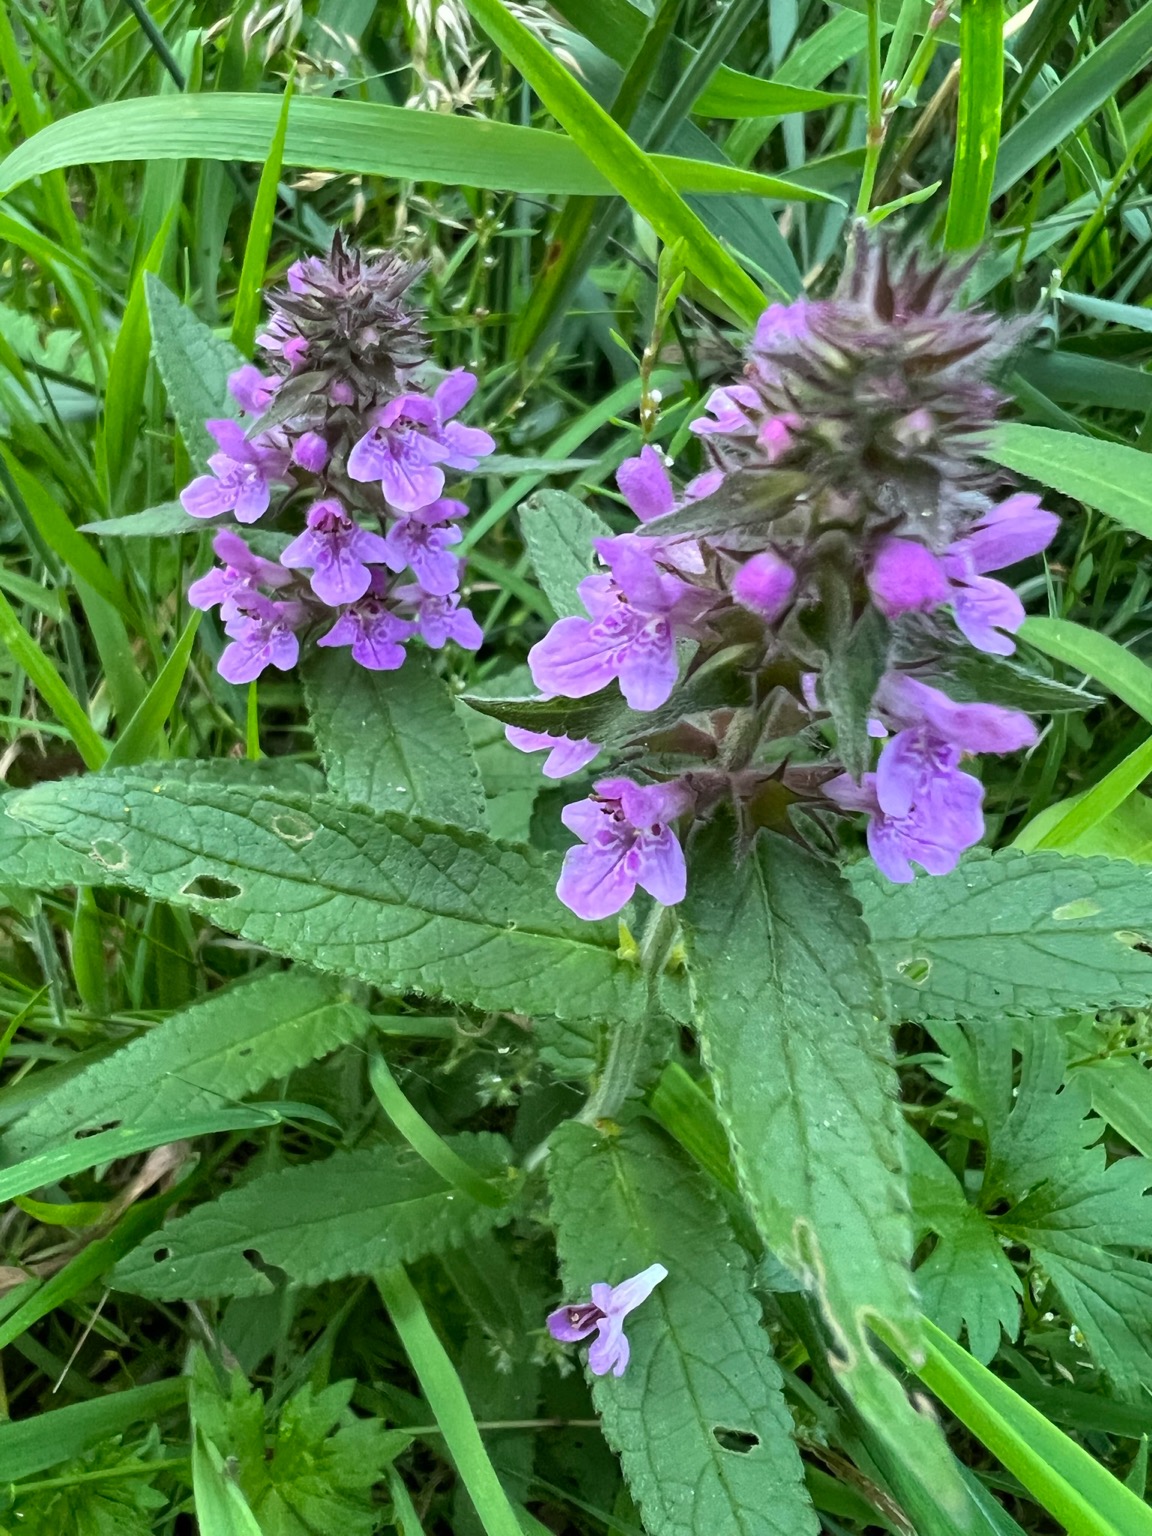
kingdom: Plantae
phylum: Tracheophyta
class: Magnoliopsida
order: Lamiales
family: Lamiaceae
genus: Stachys
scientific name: Stachys palustris
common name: Kær-galtetand
